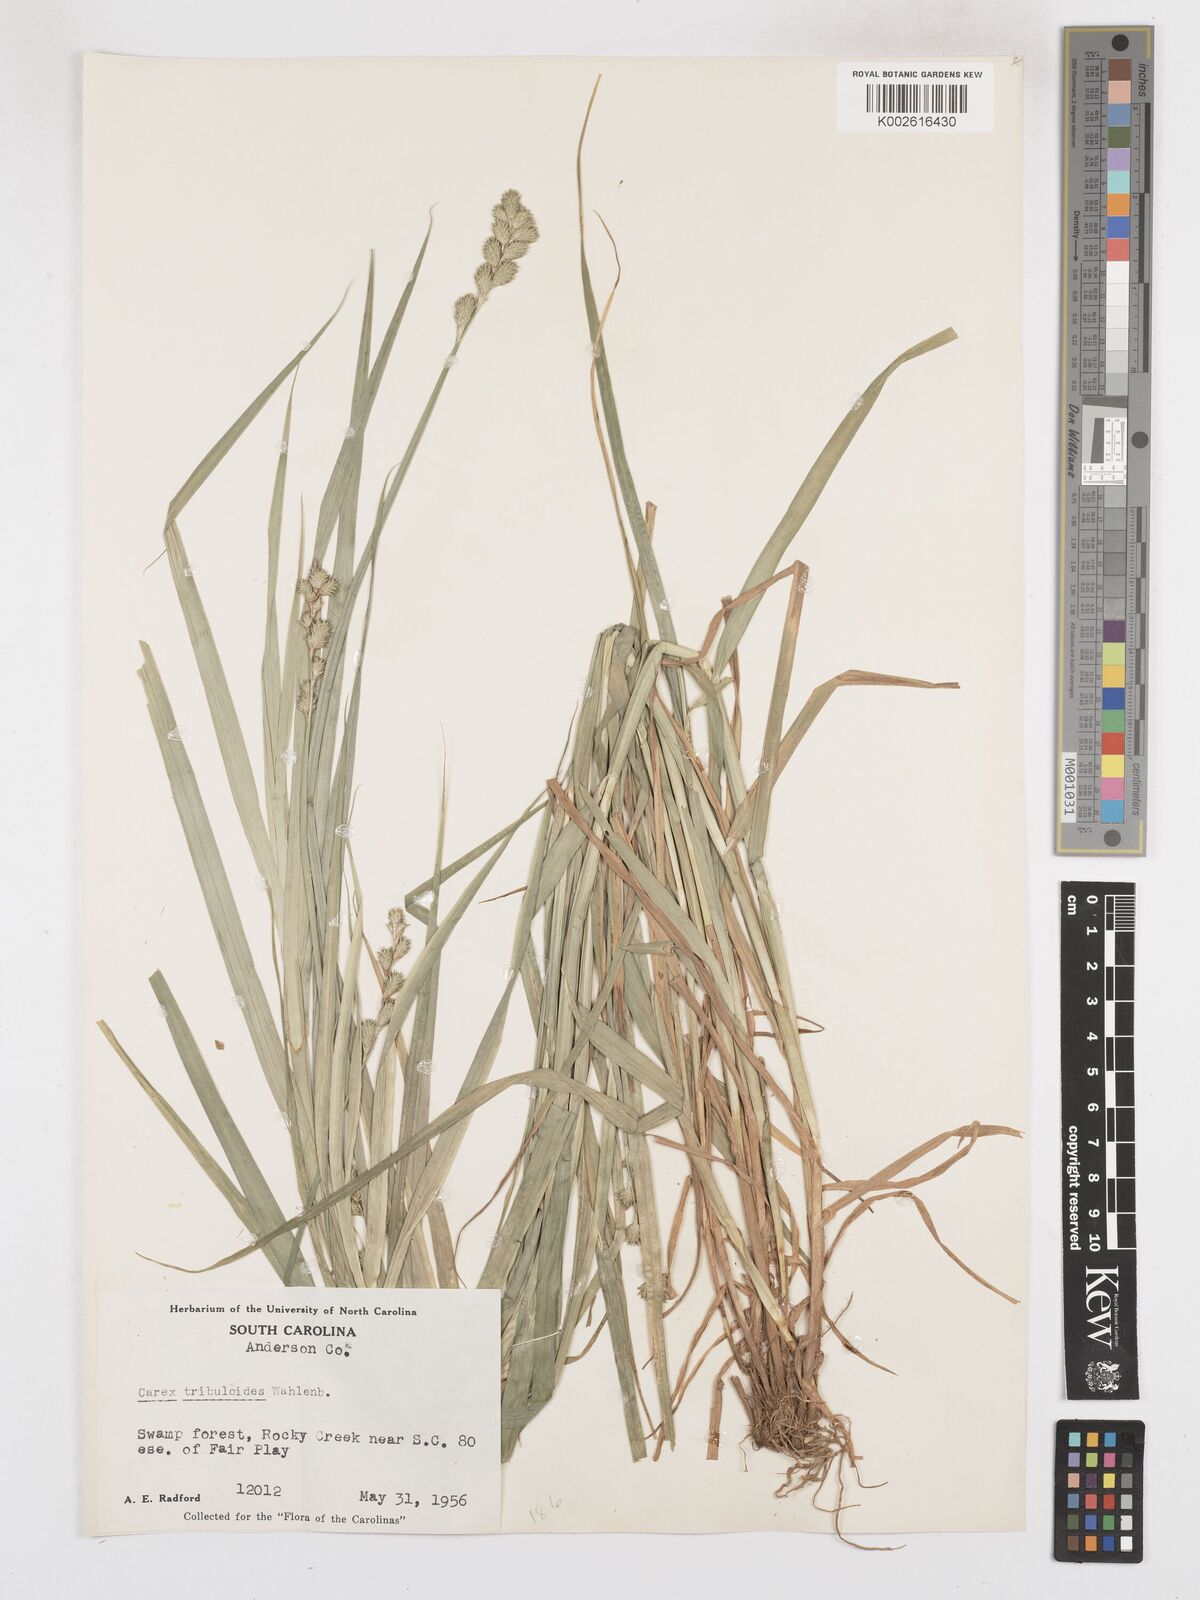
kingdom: Plantae
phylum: Tracheophyta
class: Liliopsida
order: Poales
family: Cyperaceae
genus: Carex
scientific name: Carex tribuloides
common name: Blunt broom sedge
